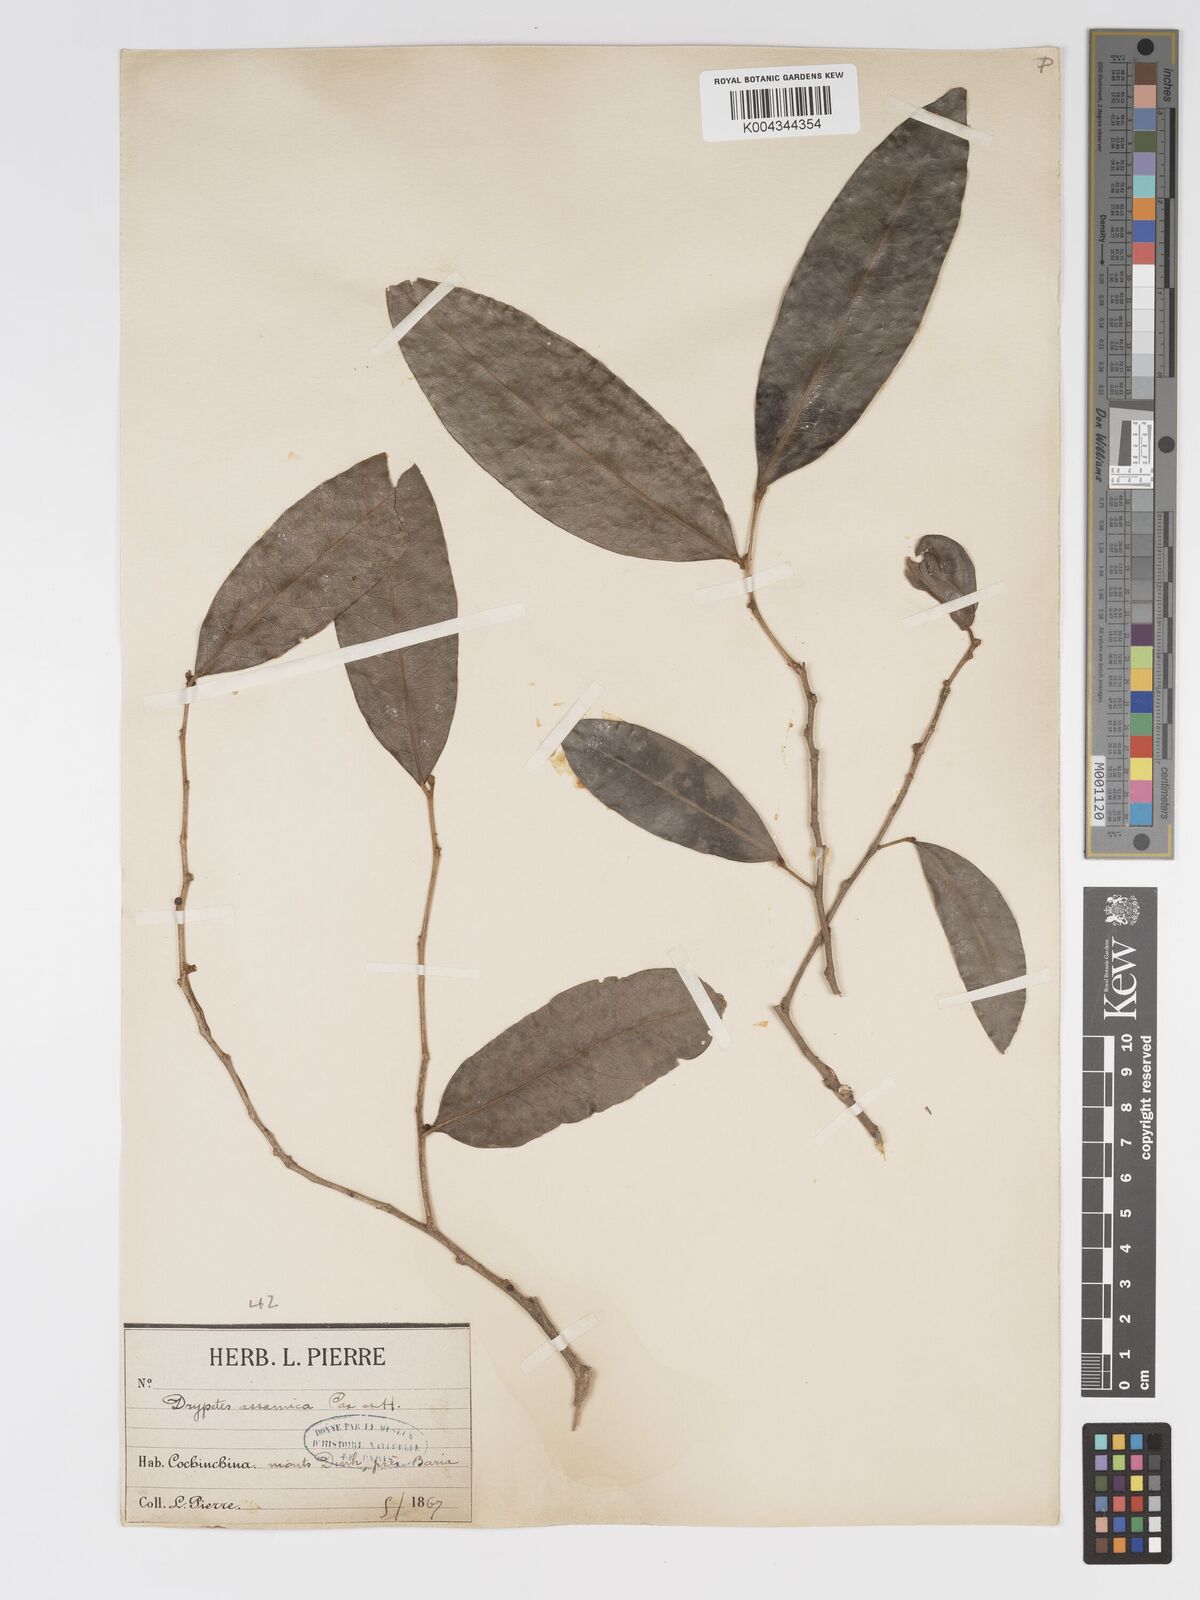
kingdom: Plantae
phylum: Tracheophyta
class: Magnoliopsida
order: Malpighiales
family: Putranjivaceae
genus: Drypetes
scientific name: Drypetes assamica
